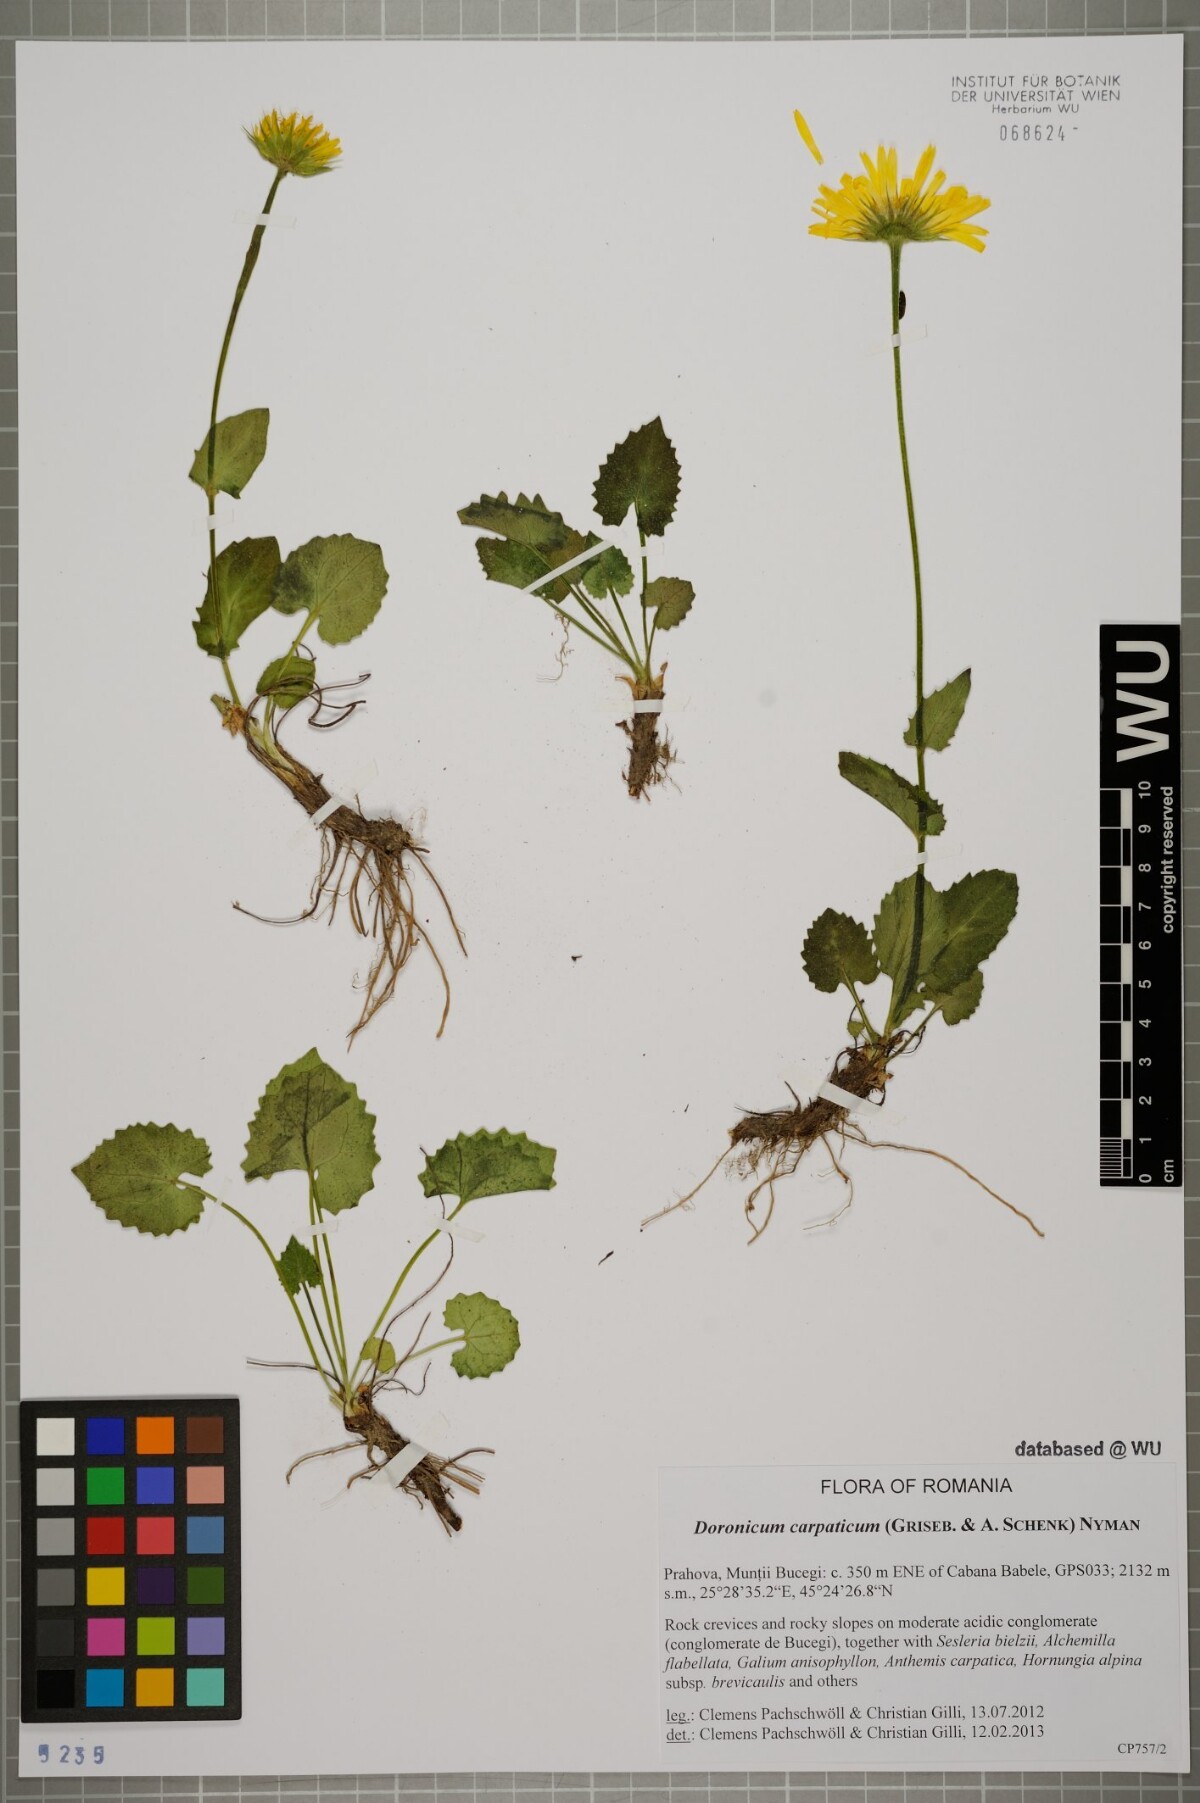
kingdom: Plantae
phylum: Tracheophyta
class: Magnoliopsida
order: Asterales
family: Asteraceae
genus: Doronicum
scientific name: Doronicum carpaticum
